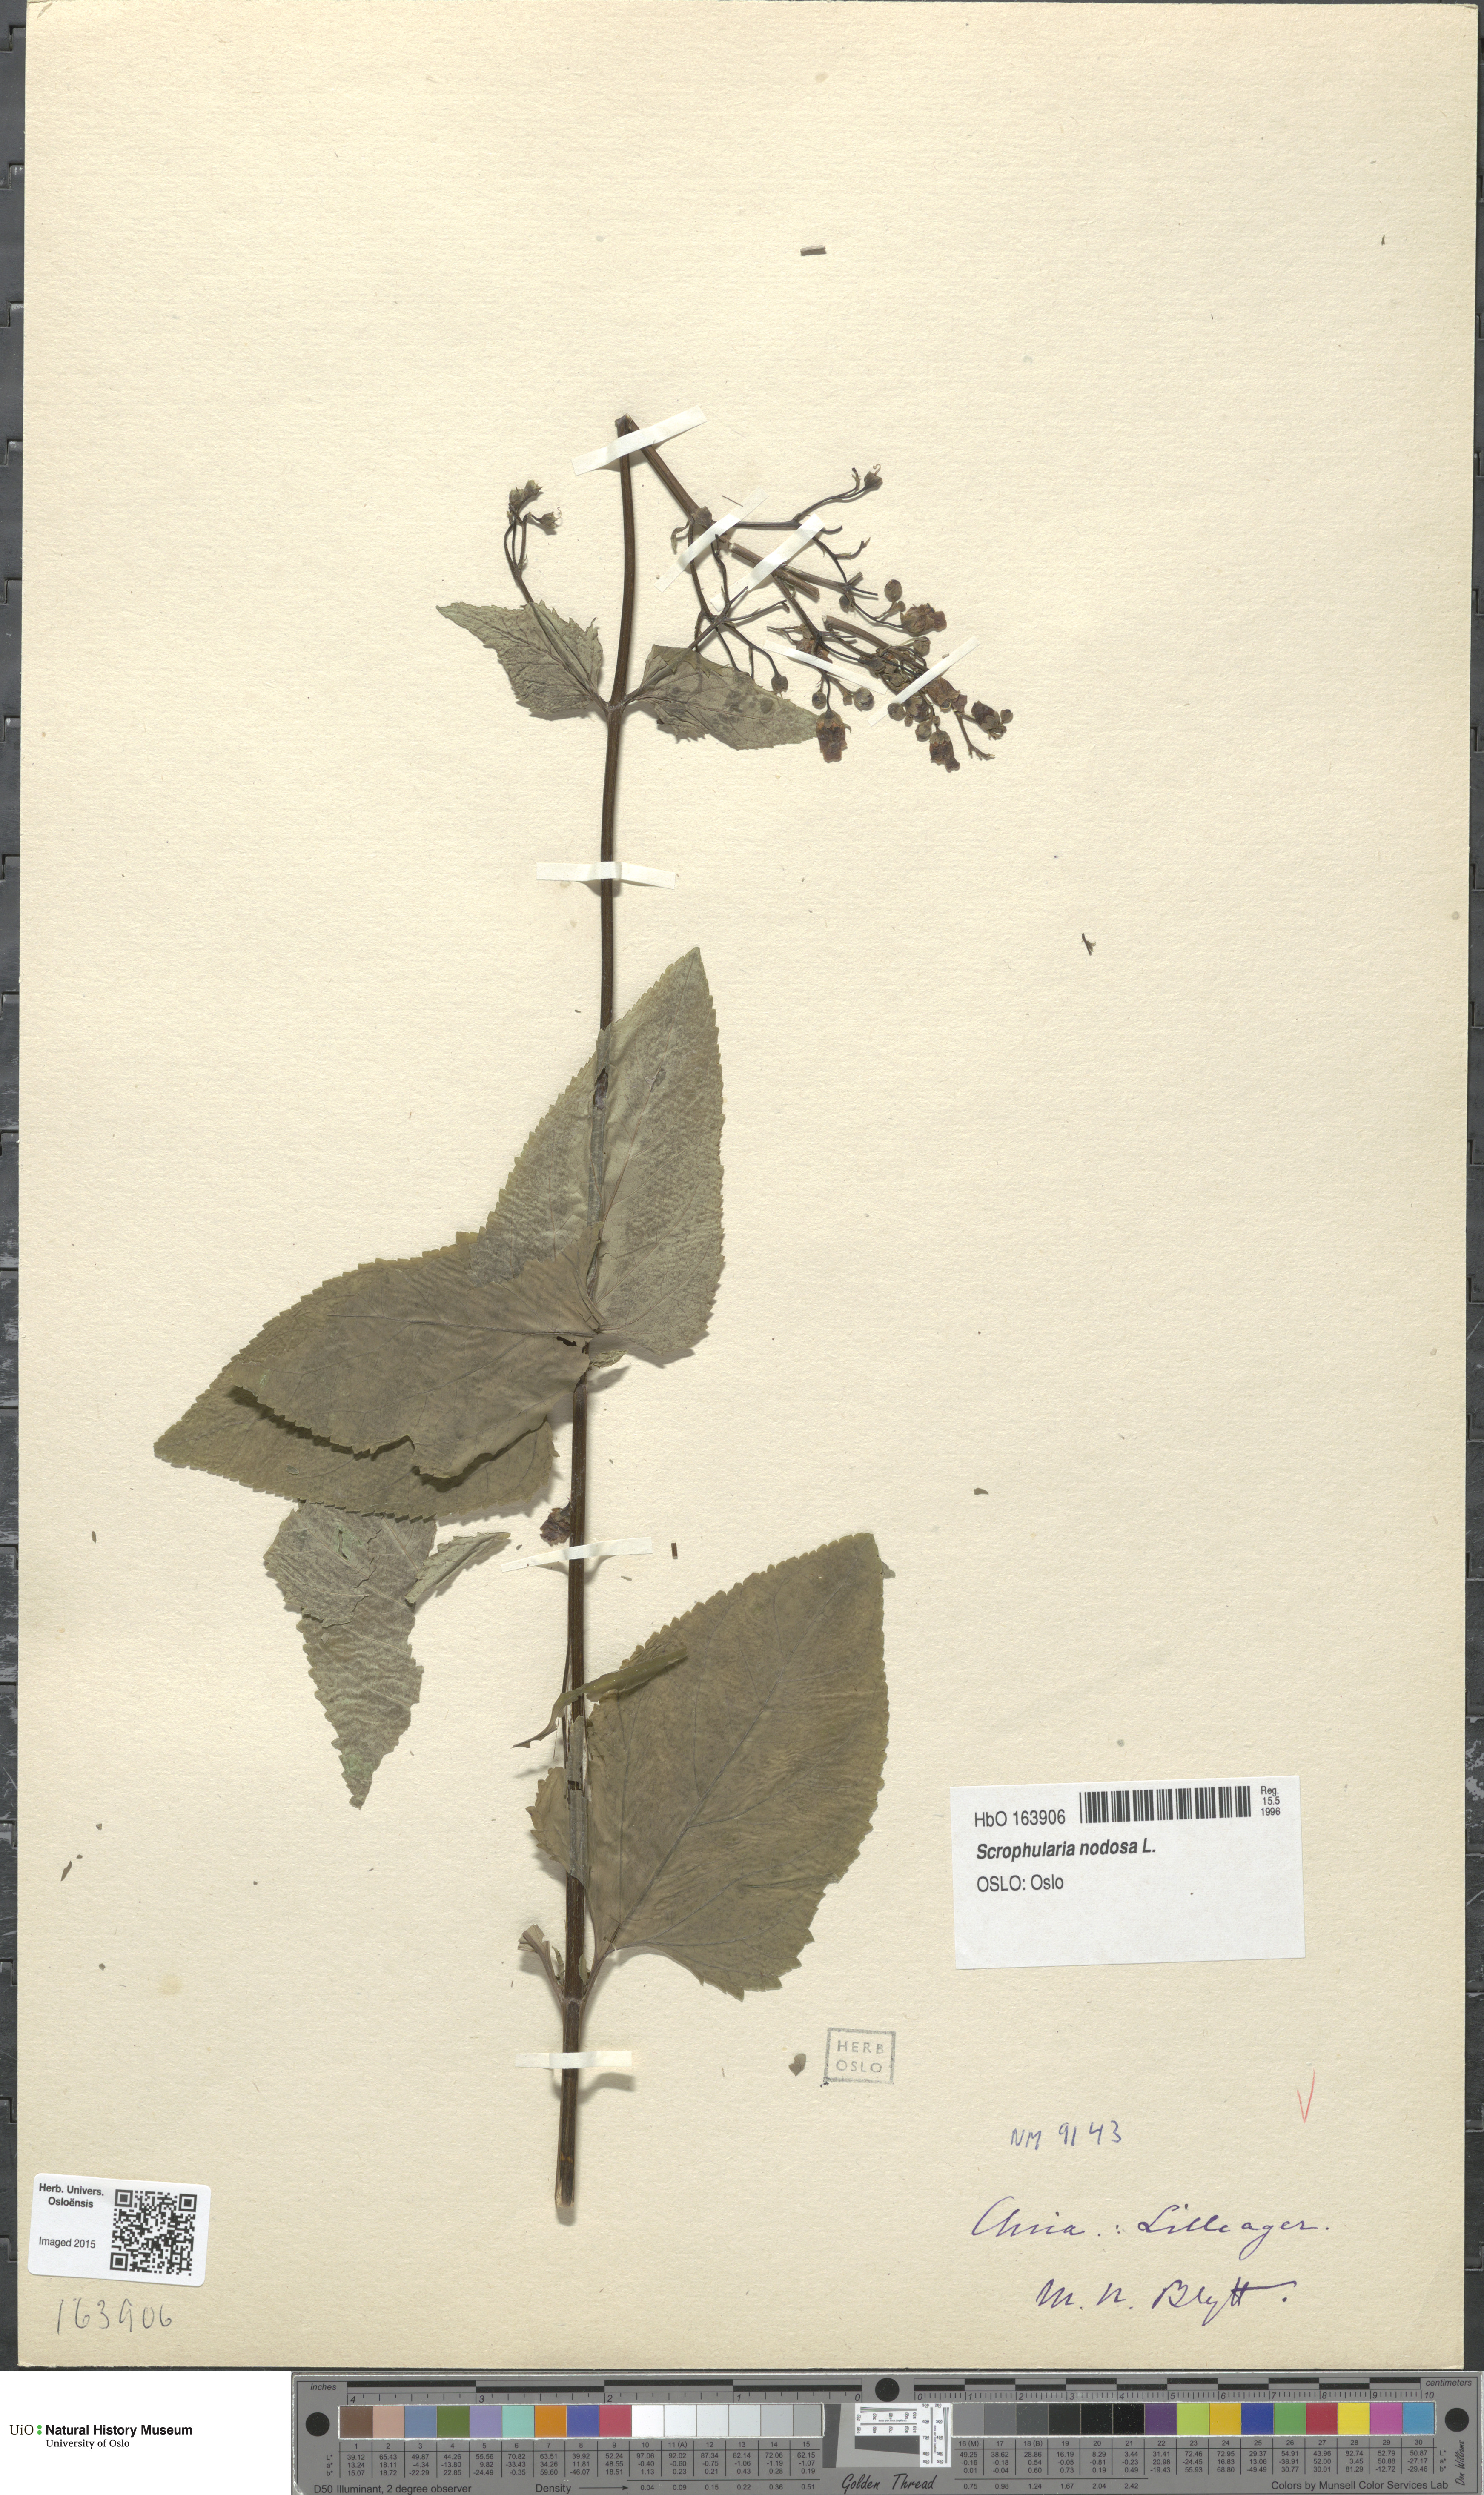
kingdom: Plantae
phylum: Tracheophyta
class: Magnoliopsida
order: Lamiales
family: Scrophulariaceae
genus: Scrophularia
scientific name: Scrophularia nodosa
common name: Common figwort
